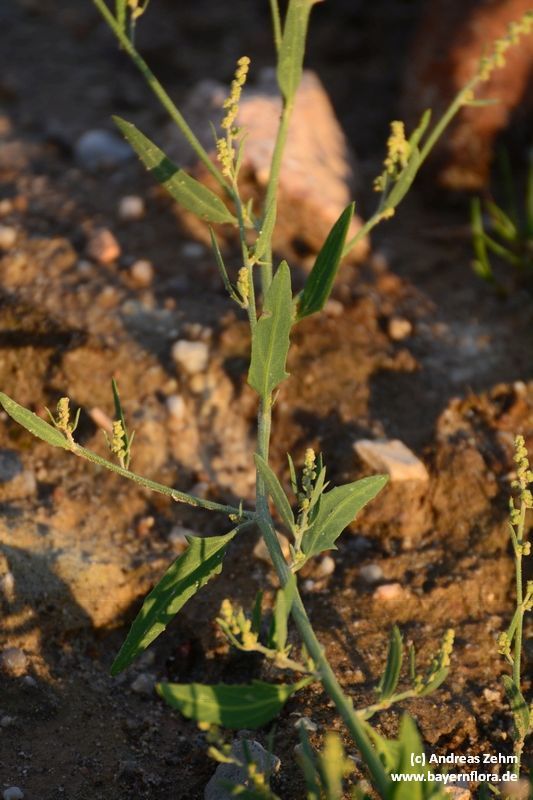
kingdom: Plantae
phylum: Tracheophyta
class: Magnoliopsida
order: Caryophyllales
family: Amaranthaceae
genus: Atriplex
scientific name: Atriplex patula
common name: Common orache
